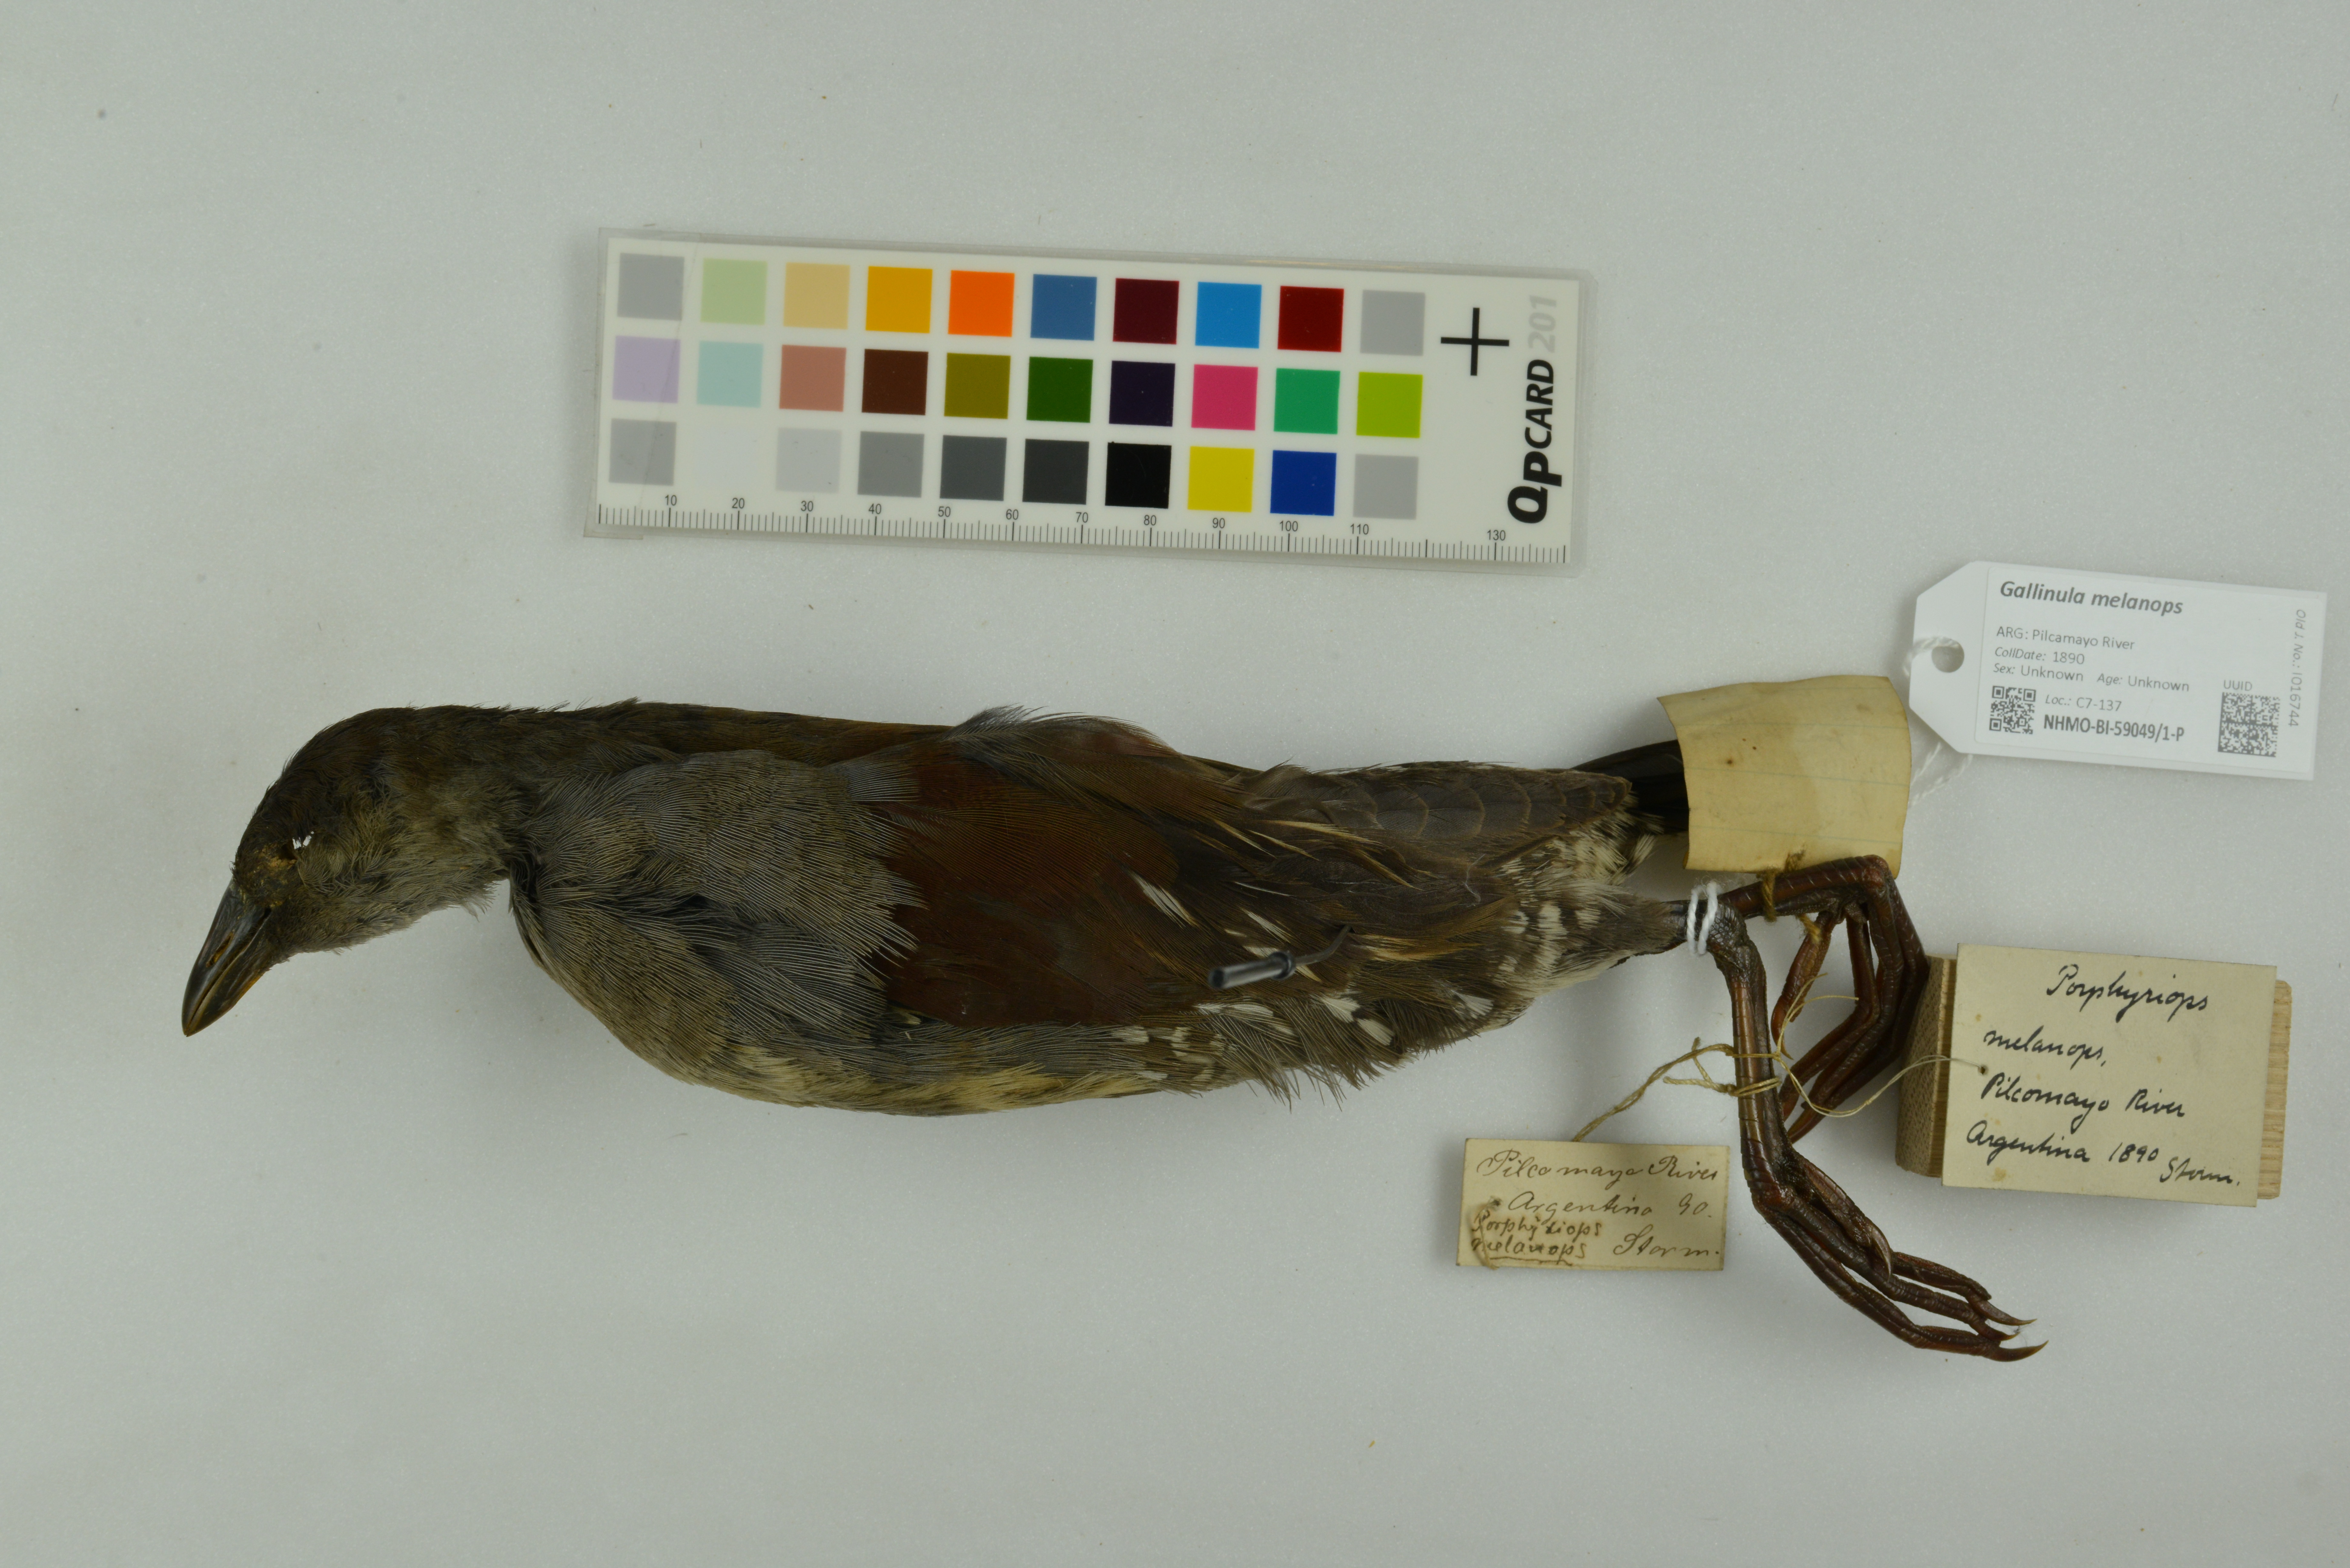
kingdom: Animalia
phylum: Chordata
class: Aves
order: Gruiformes
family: Rallidae
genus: Gallinula
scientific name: Gallinula melanops
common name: Spot-flanked gallinule
